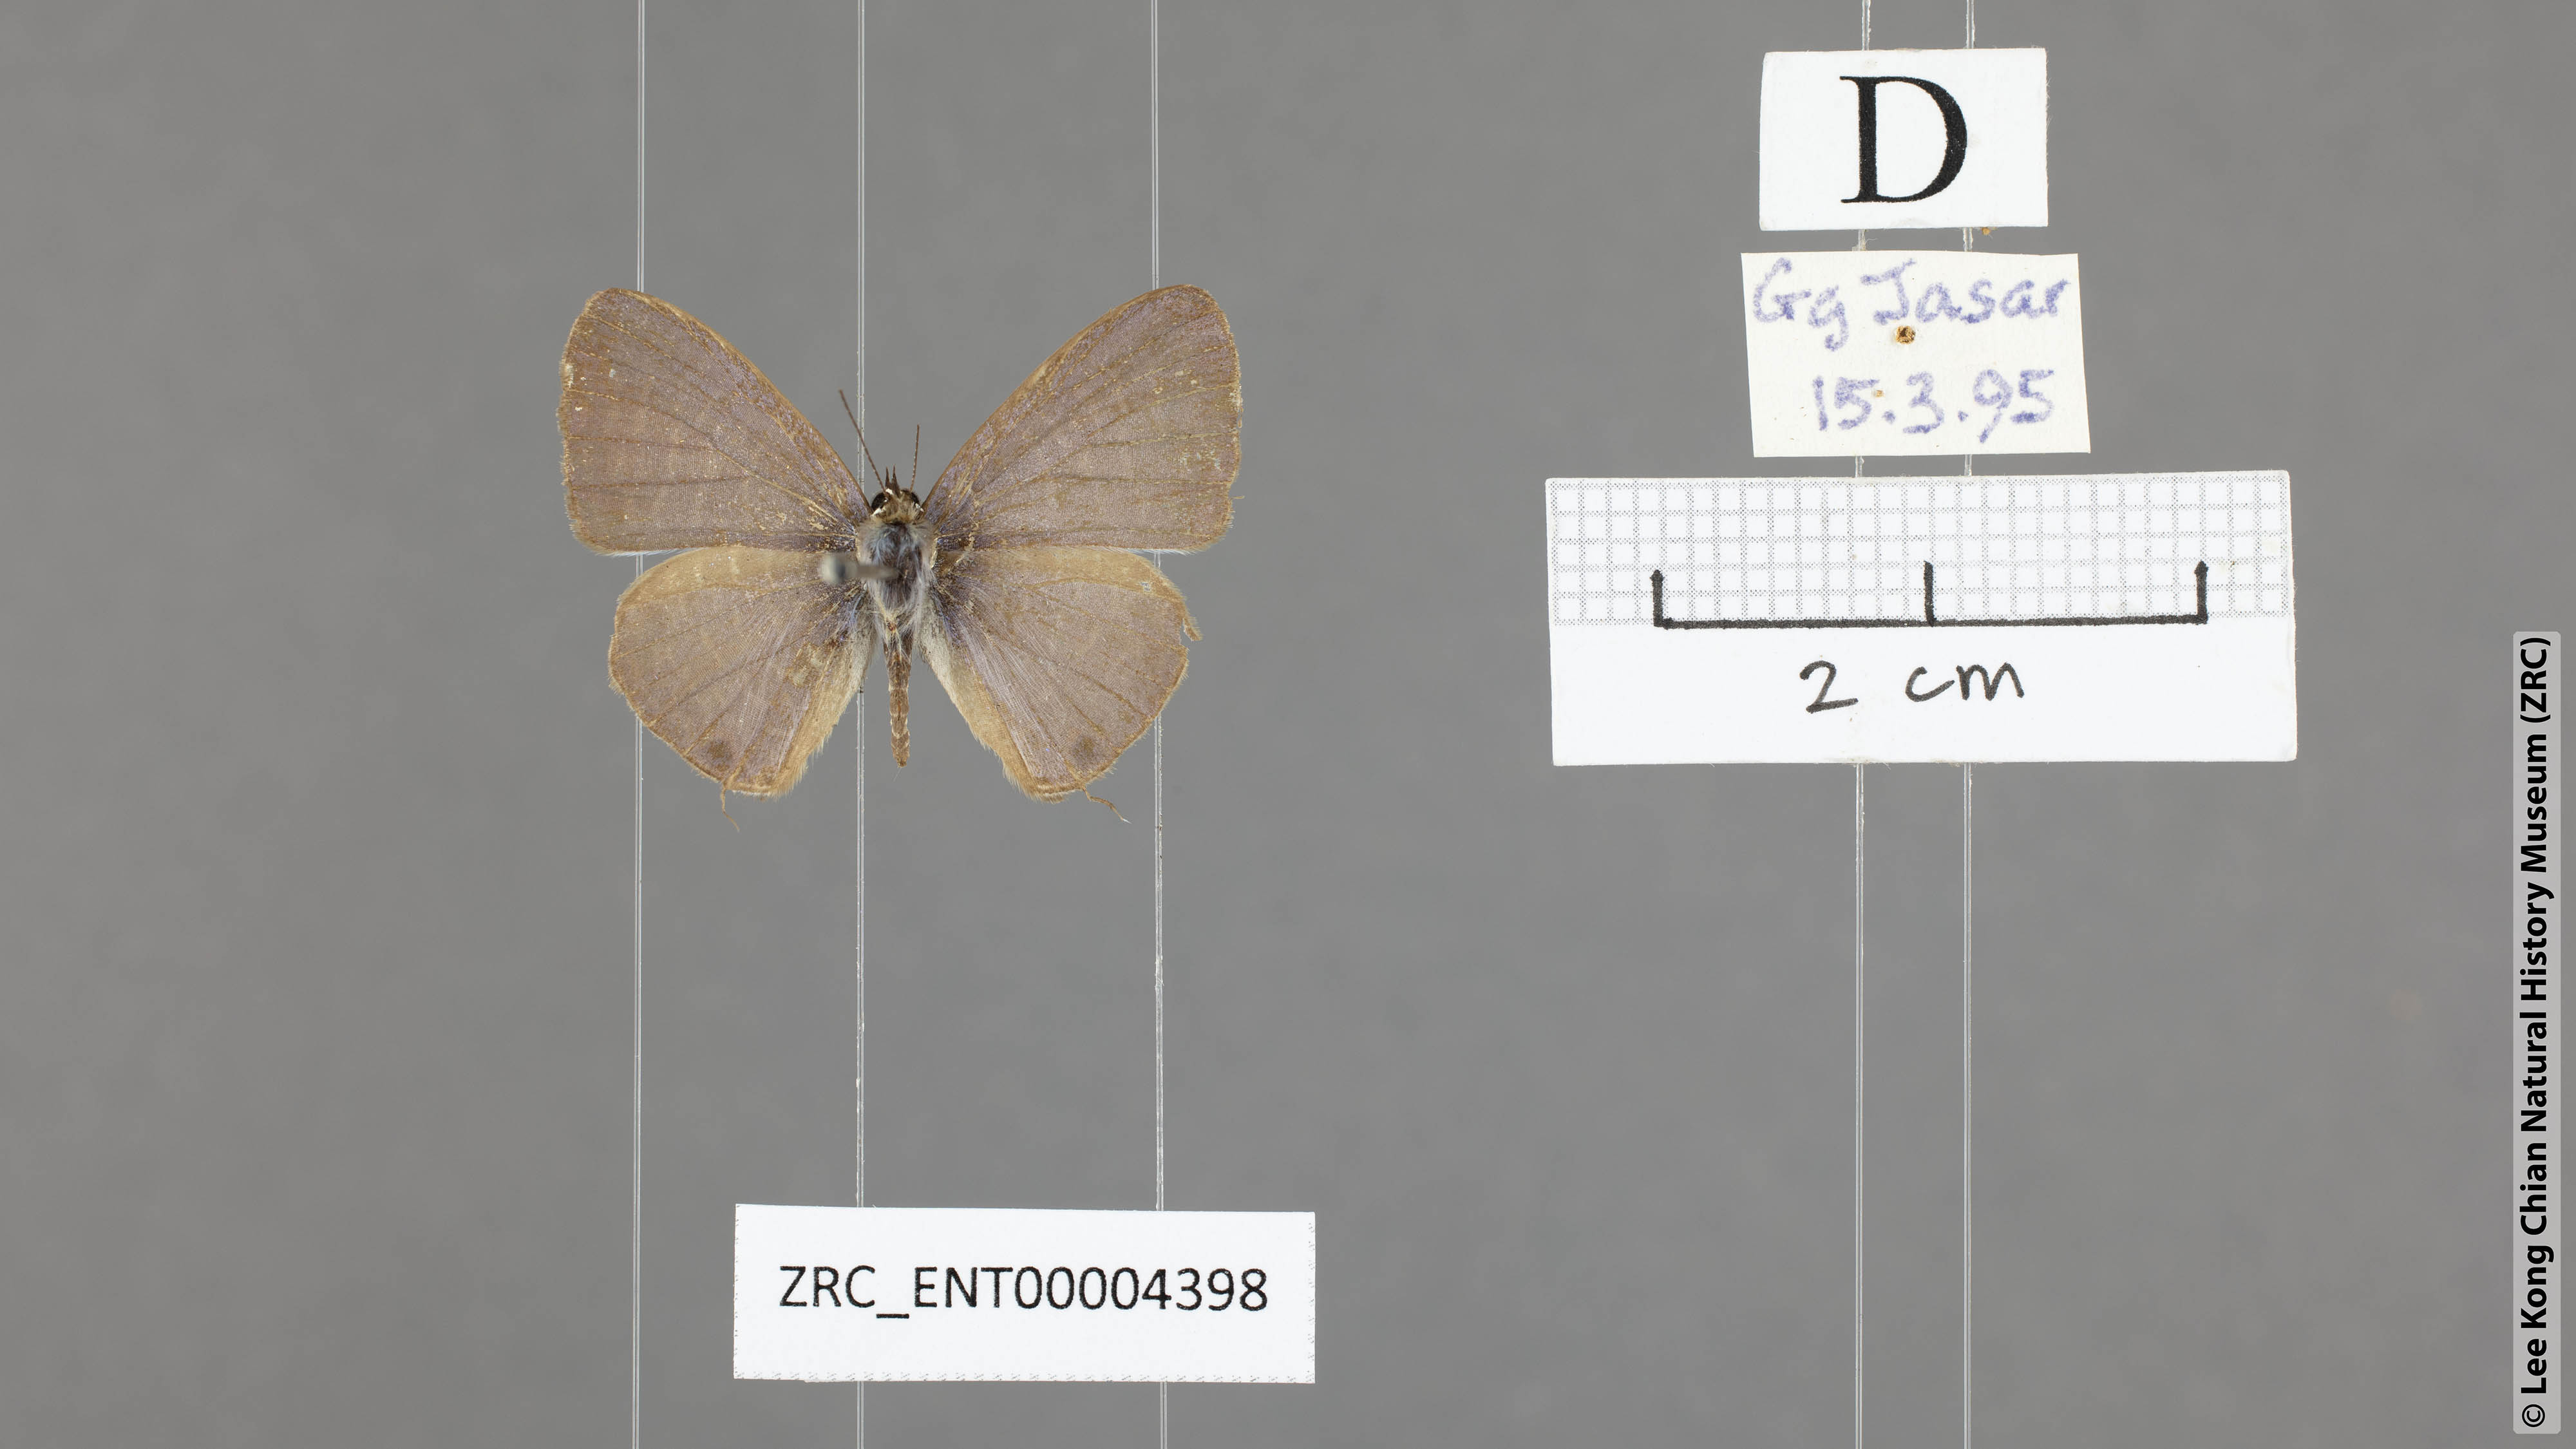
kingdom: Animalia
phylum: Arthropoda
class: Insecta
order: Lepidoptera
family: Lycaenidae
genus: Nacaduba
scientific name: Nacaduba kirtoni
